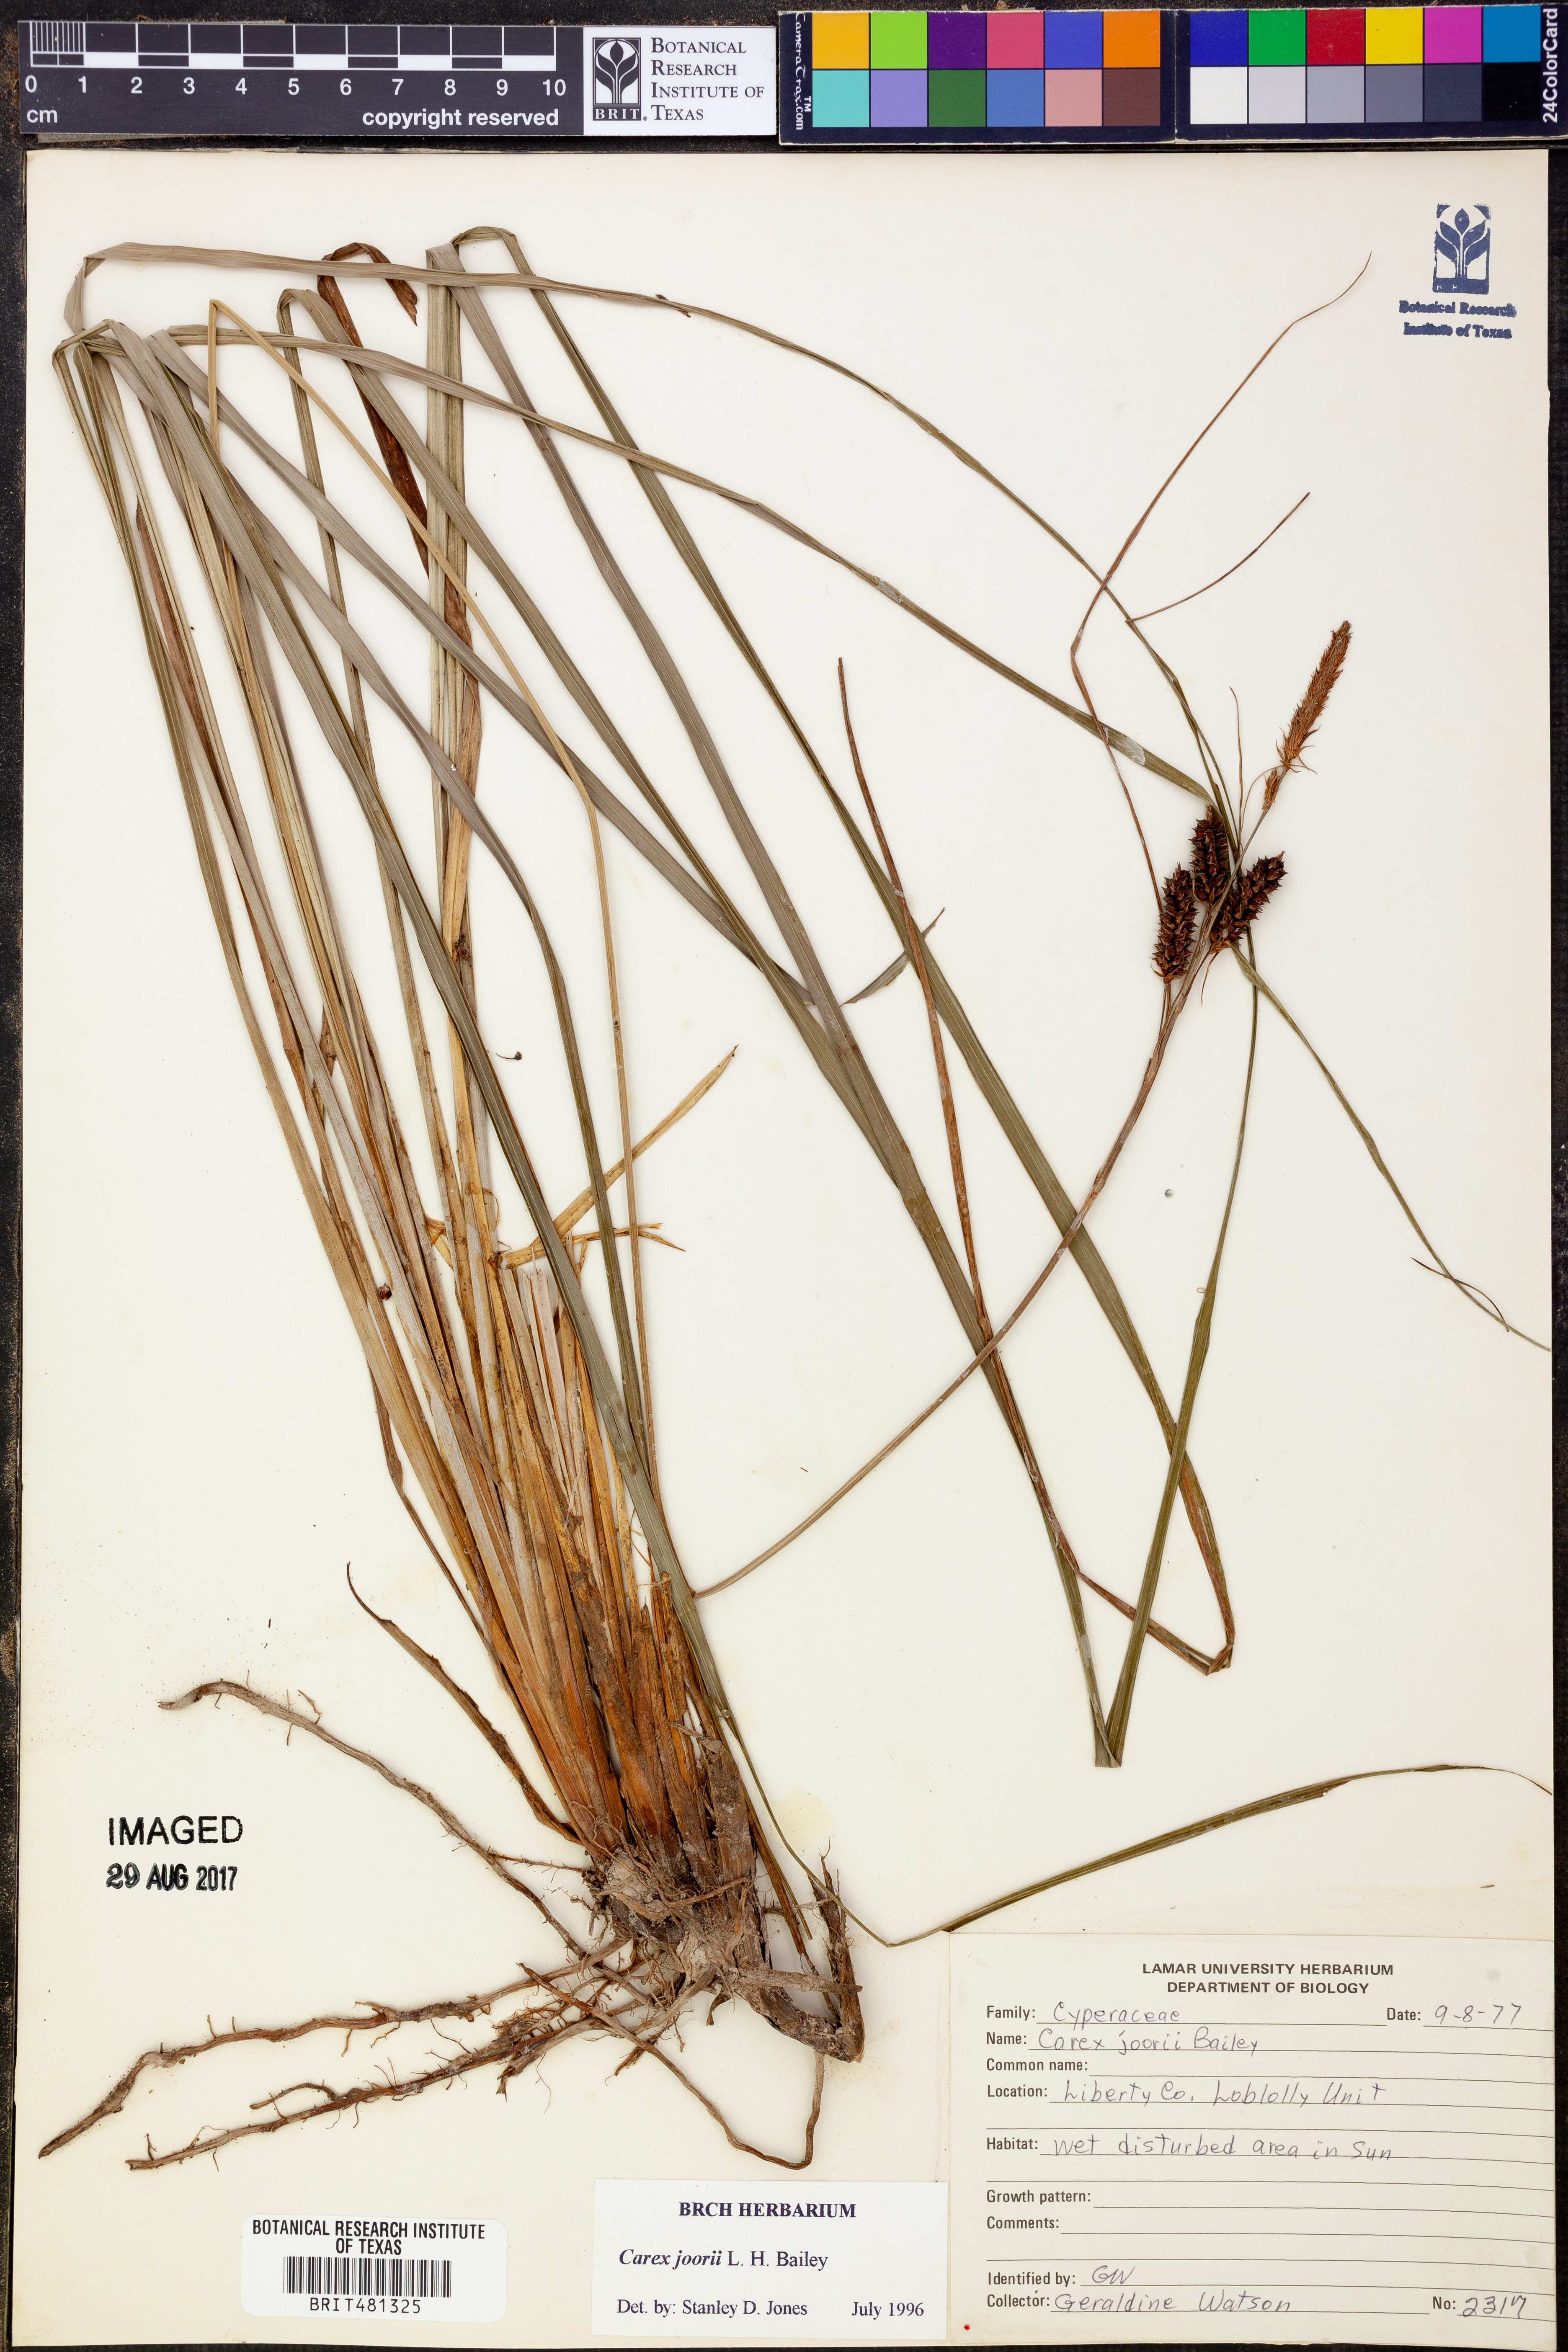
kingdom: Plantae
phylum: Tracheophyta
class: Liliopsida
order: Poales
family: Cyperaceae
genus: Carex
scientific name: Carex joorii
